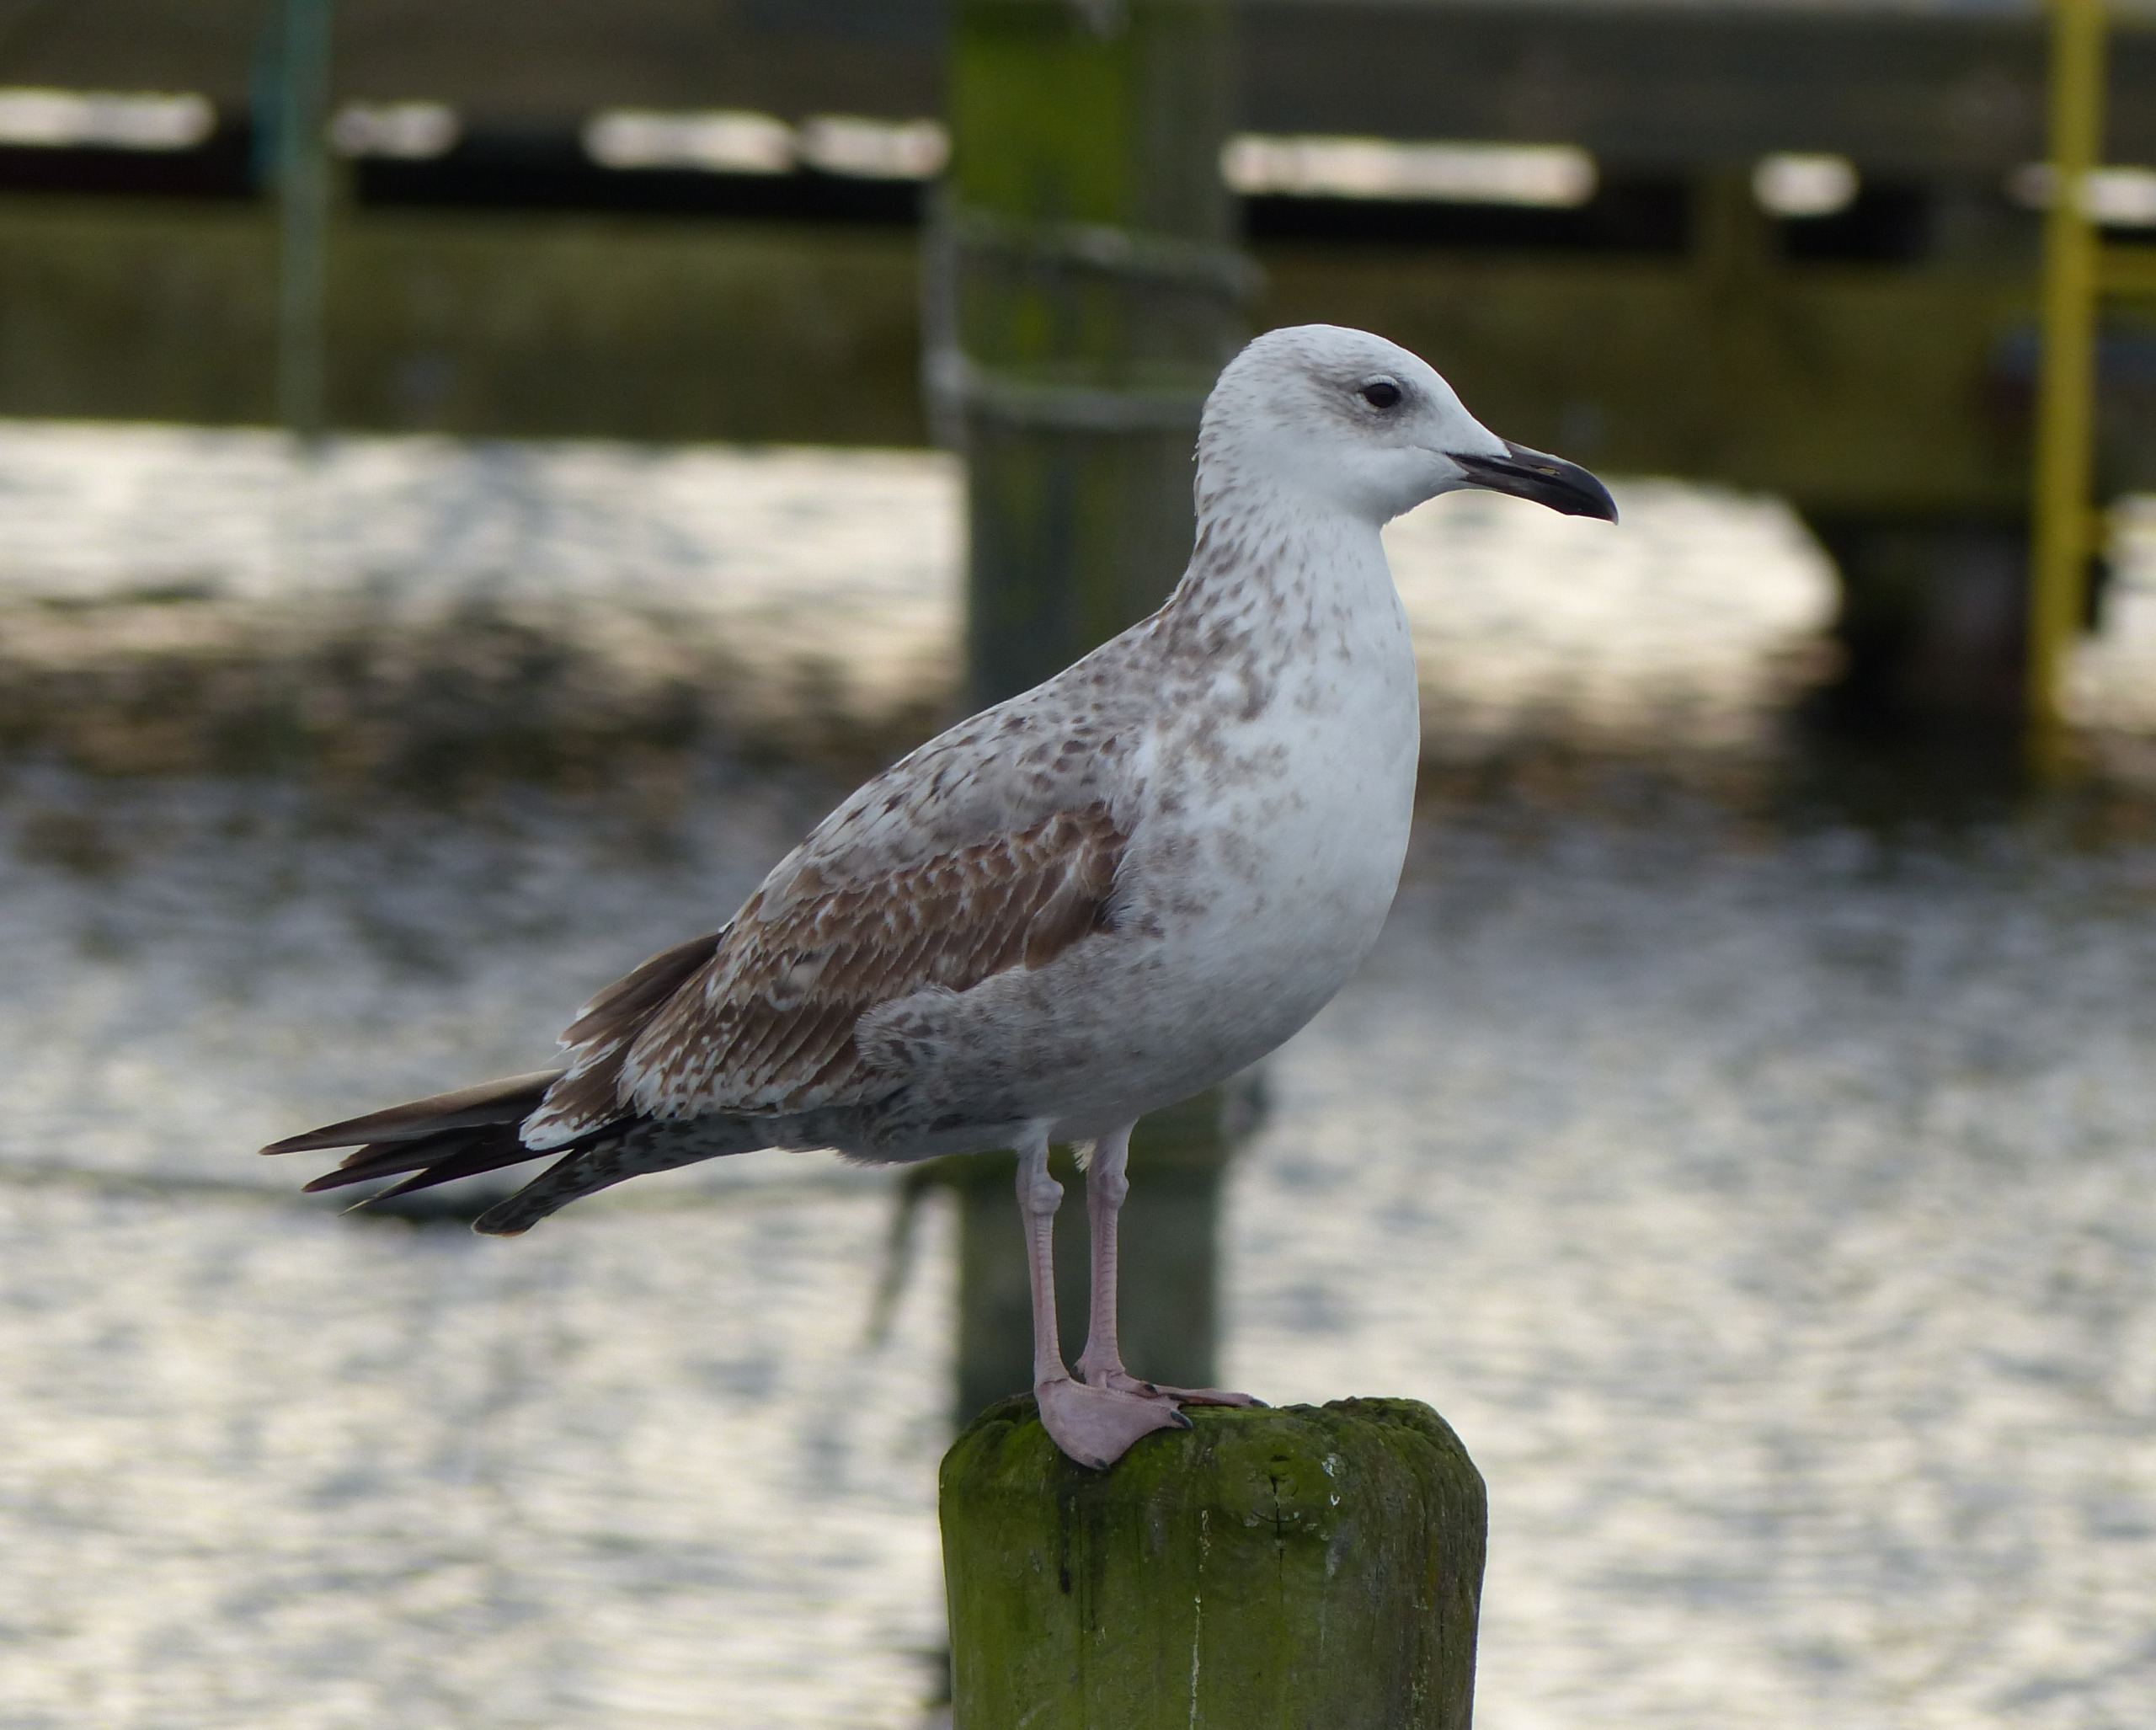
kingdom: Animalia
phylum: Chordata
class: Aves
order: Charadriiformes
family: Laridae
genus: Larus
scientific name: Larus cachinnans
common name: Kaspisk måge
